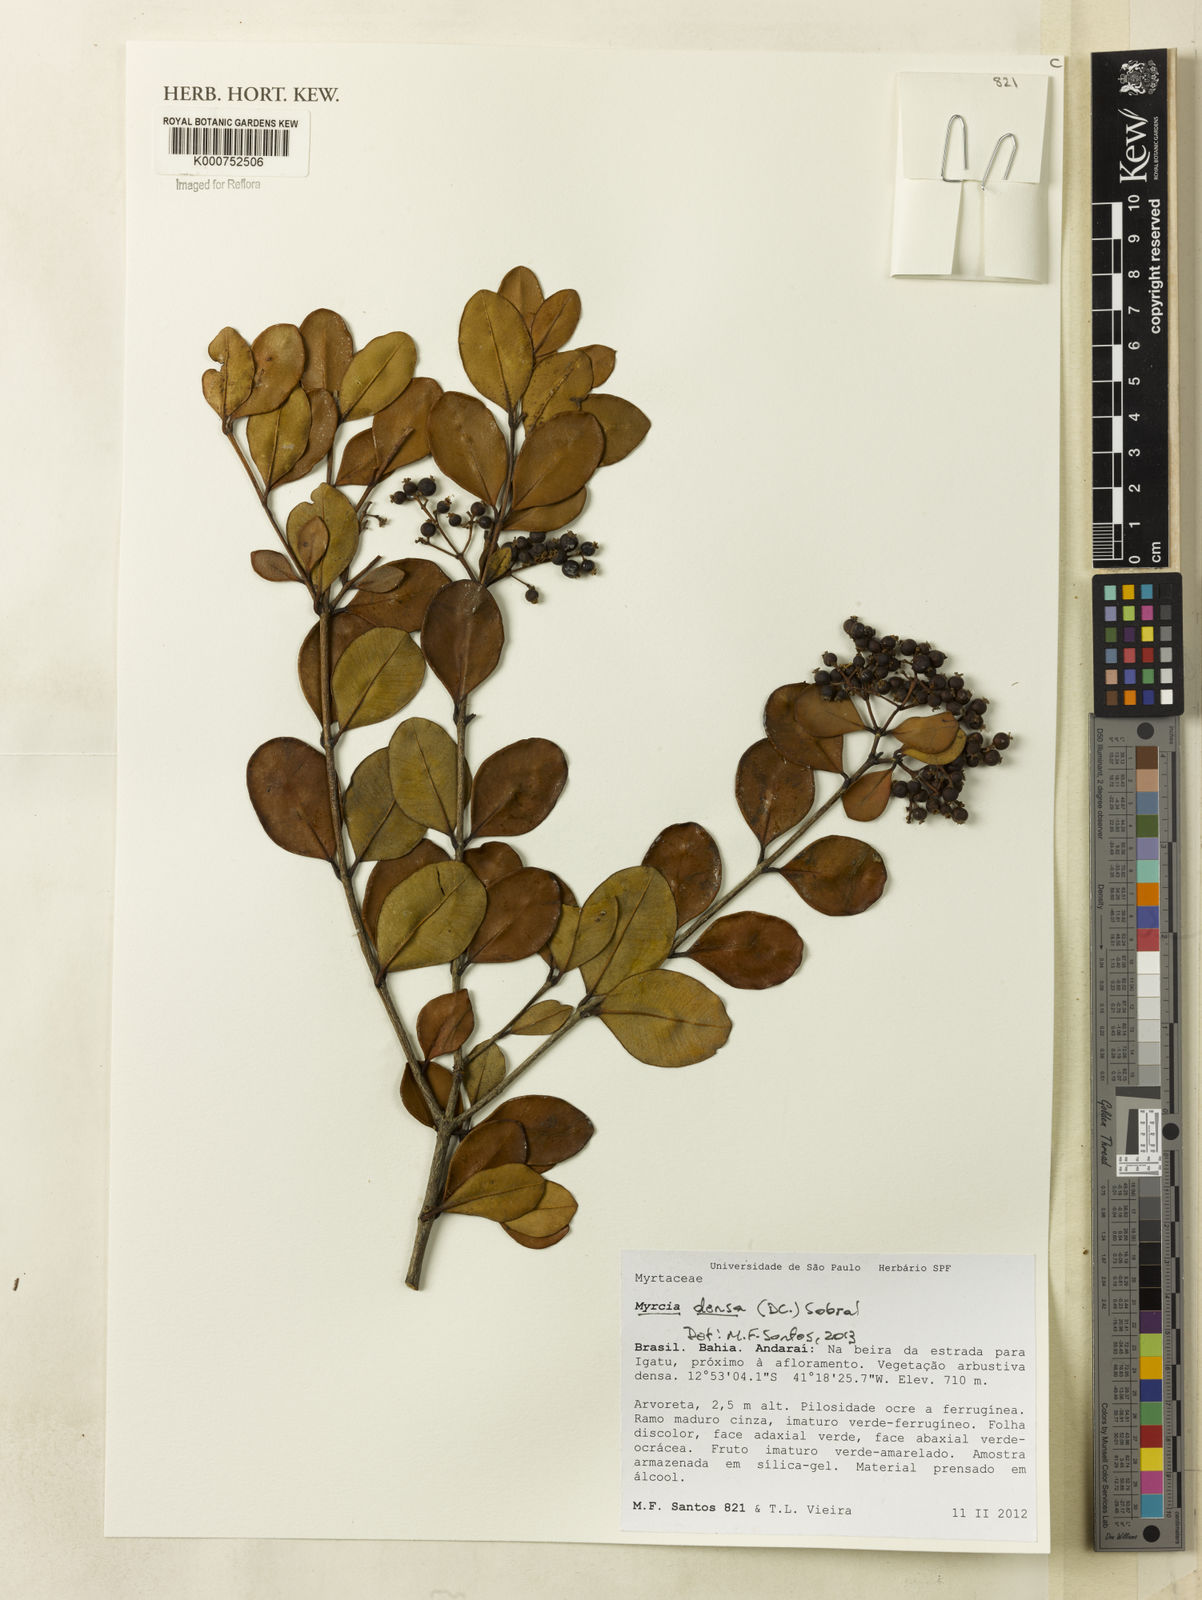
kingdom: Plantae
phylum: Tracheophyta
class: Magnoliopsida
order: Myrtales
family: Myrtaceae
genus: Myrcia
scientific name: Myrcia densa
